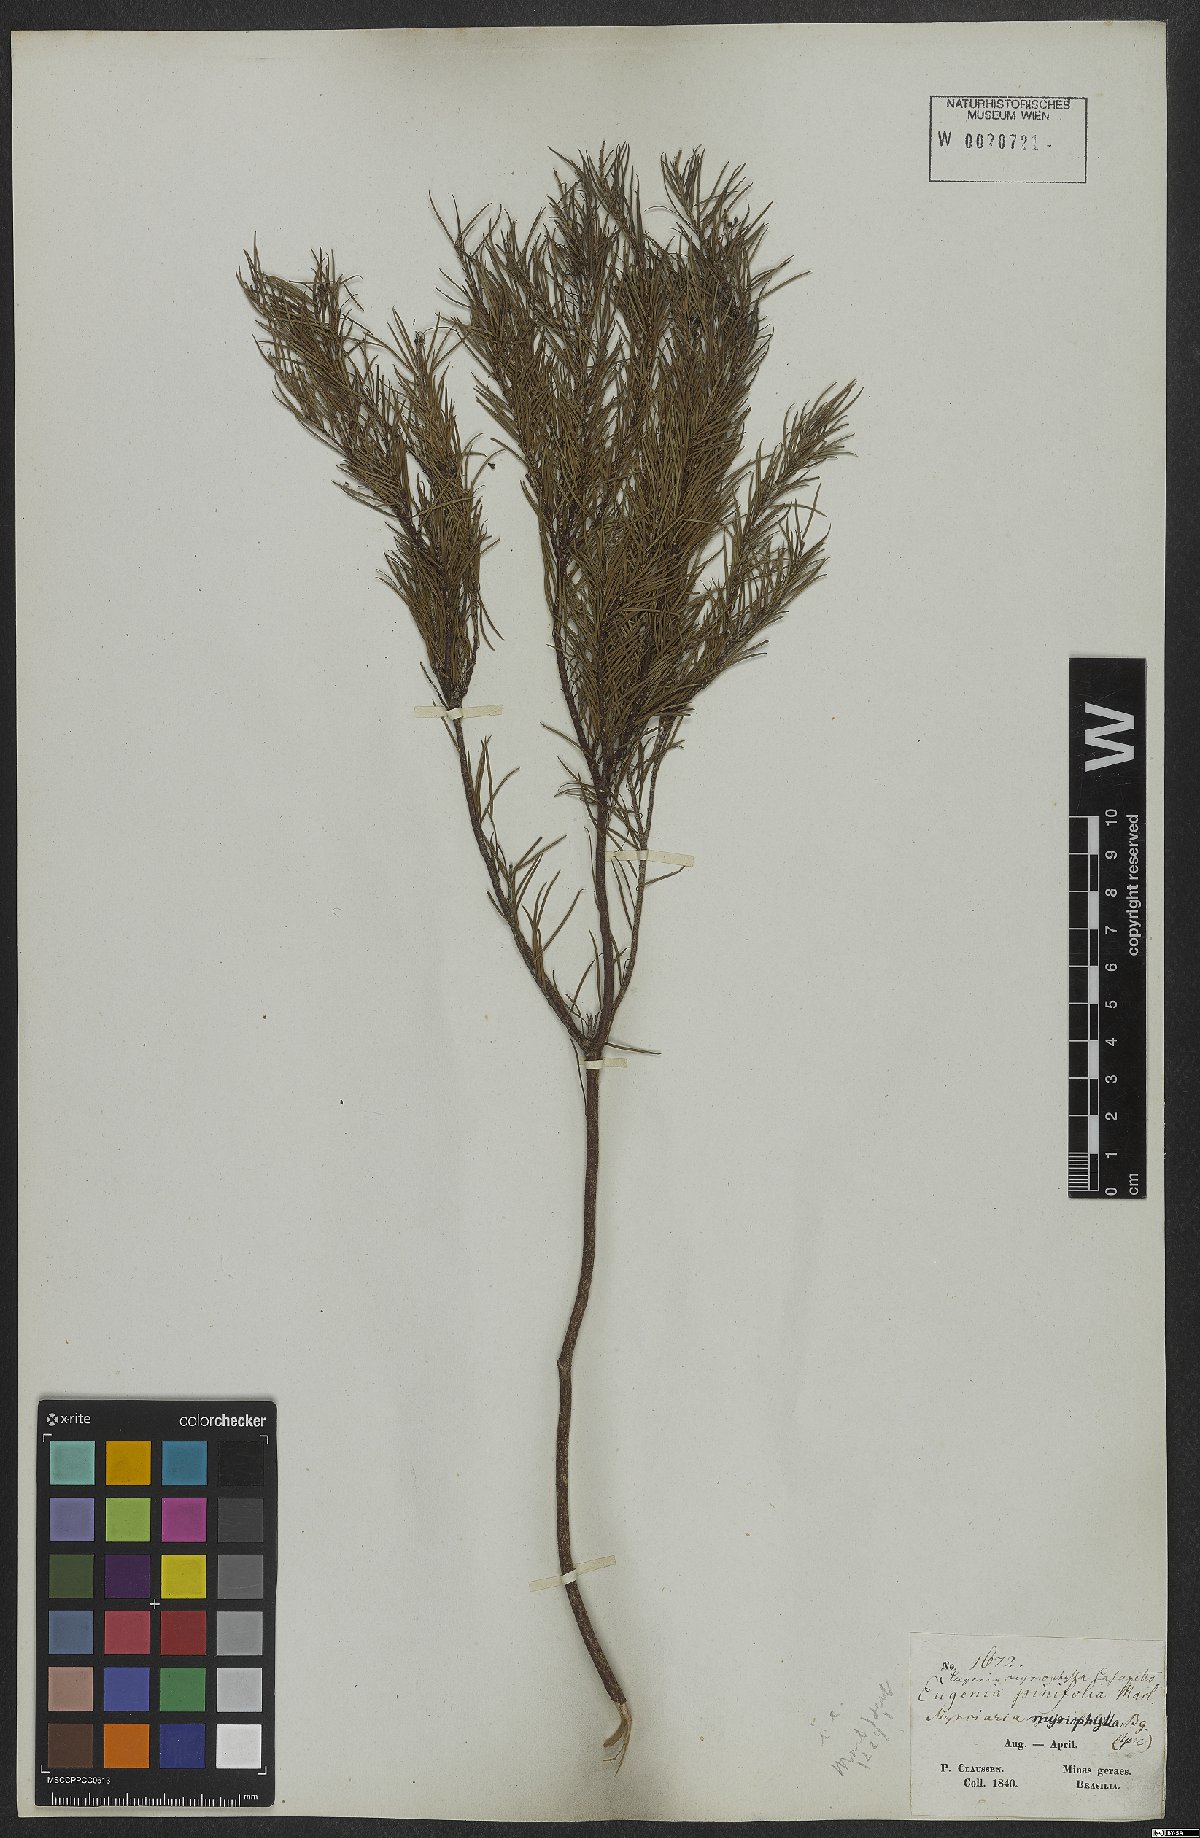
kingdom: Plantae
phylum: Tracheophyta
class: Magnoliopsida
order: Myrtales
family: Myrtaceae
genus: Blepharocalyx
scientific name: Blepharocalyx myriophyllus
